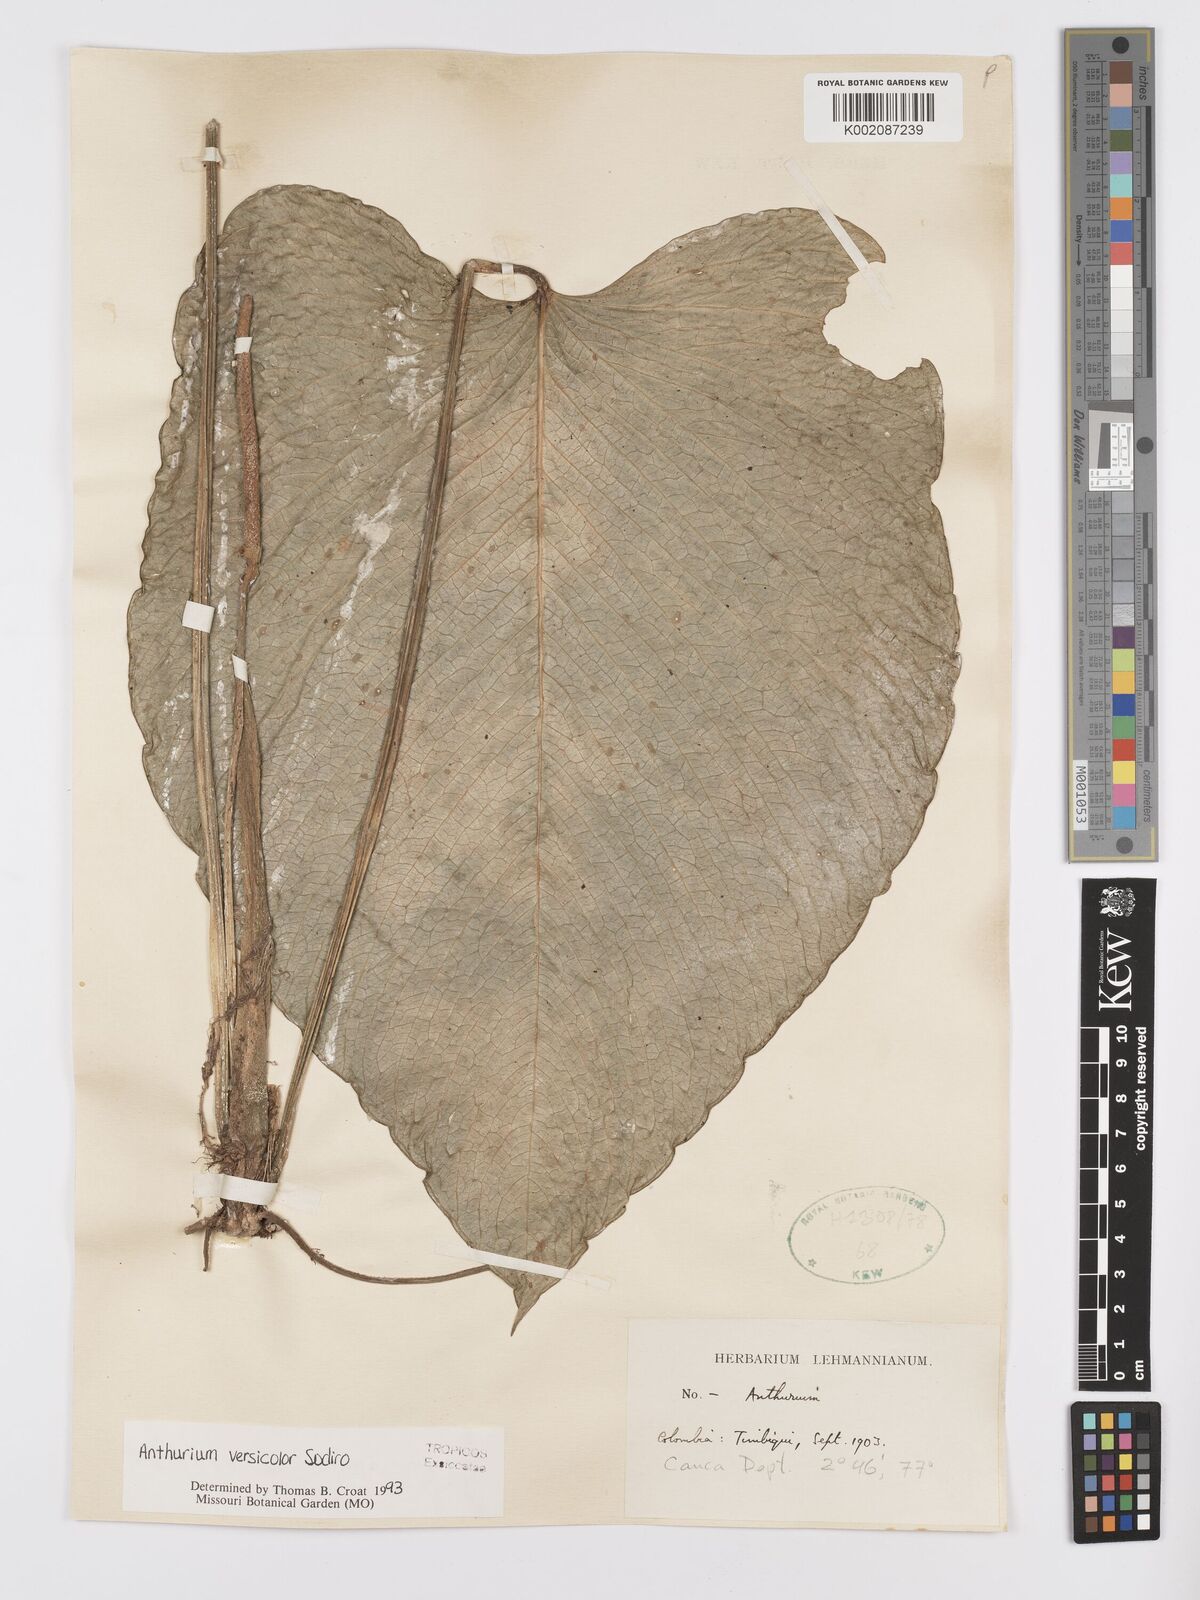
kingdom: Plantae
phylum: Tracheophyta
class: Liliopsida
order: Alismatales
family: Araceae
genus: Anthurium
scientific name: Anthurium versicolor
